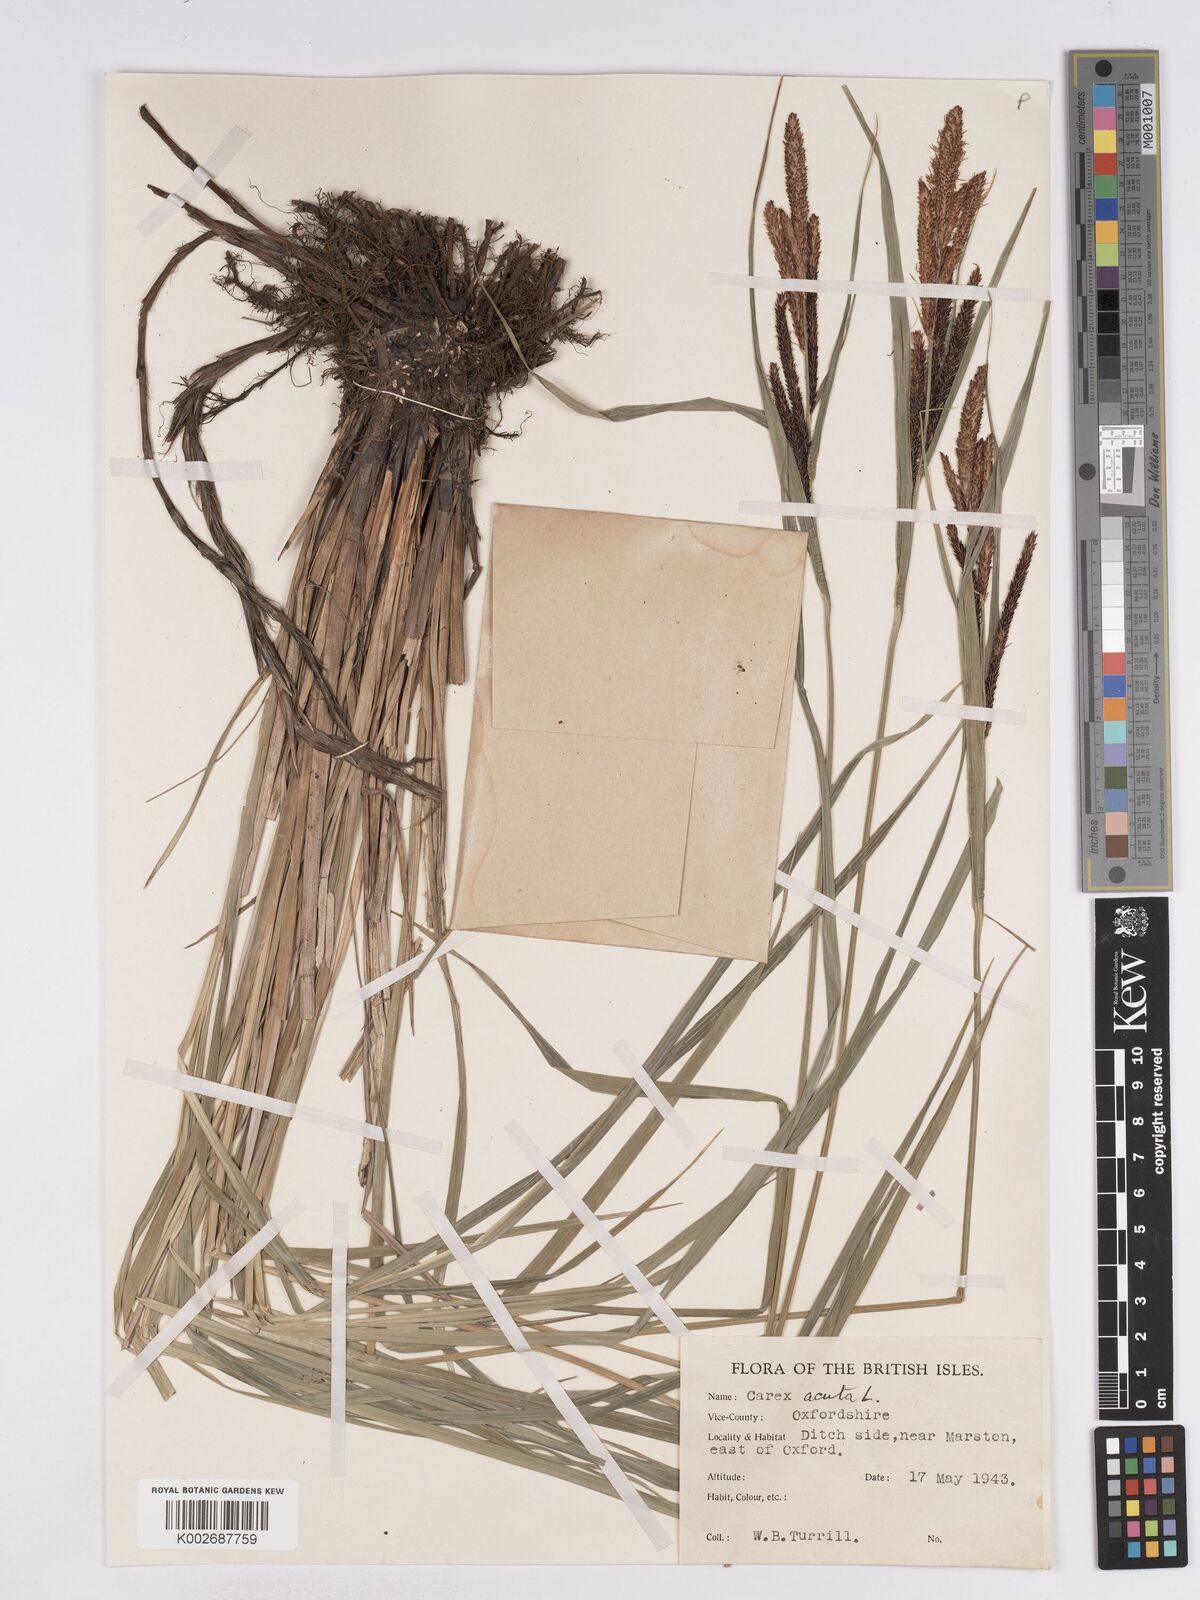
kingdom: Plantae
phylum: Tracheophyta
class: Liliopsida
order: Poales
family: Cyperaceae
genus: Carex
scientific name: Carex acuta
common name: Slender tufted-sedge
